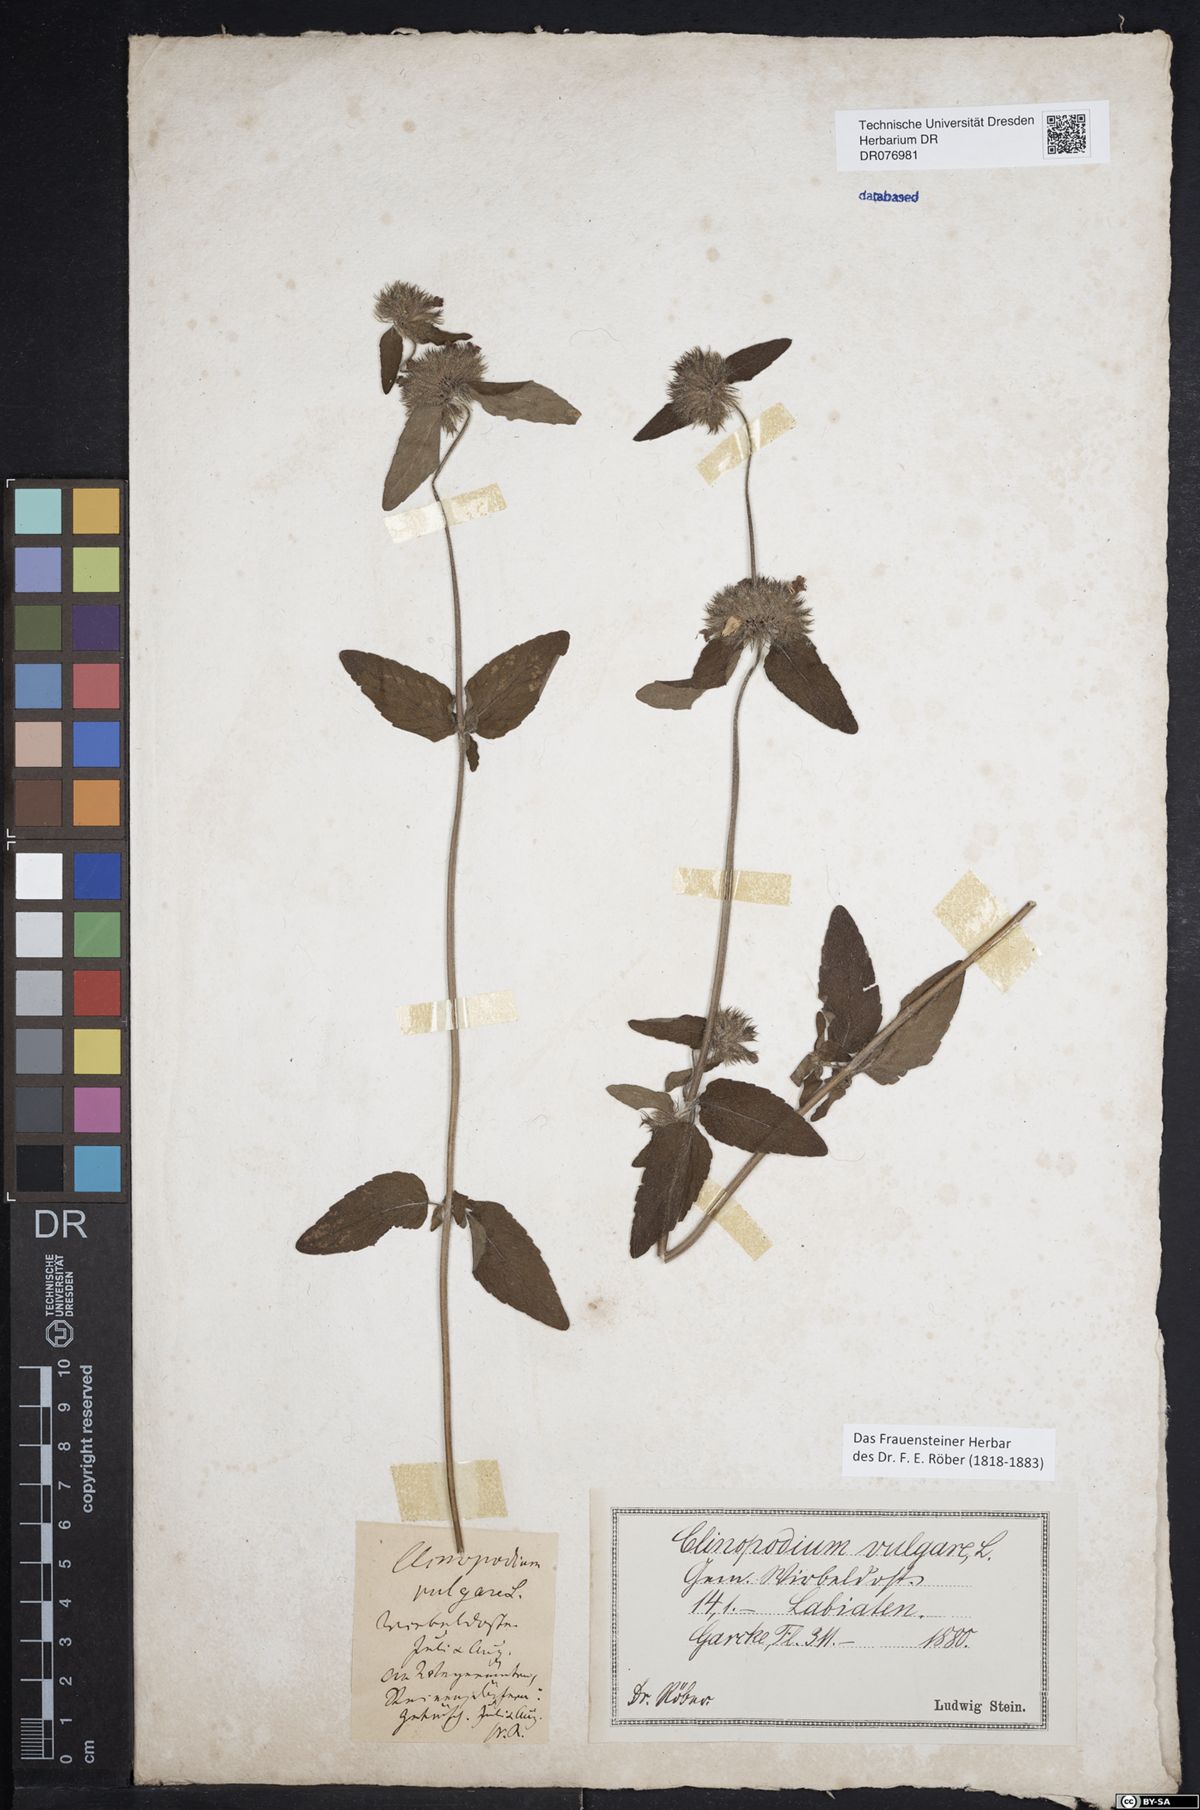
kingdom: Plantae
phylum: Tracheophyta
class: Magnoliopsida
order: Lamiales
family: Lamiaceae
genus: Clinopodium
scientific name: Clinopodium vulgare
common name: Wild basil
